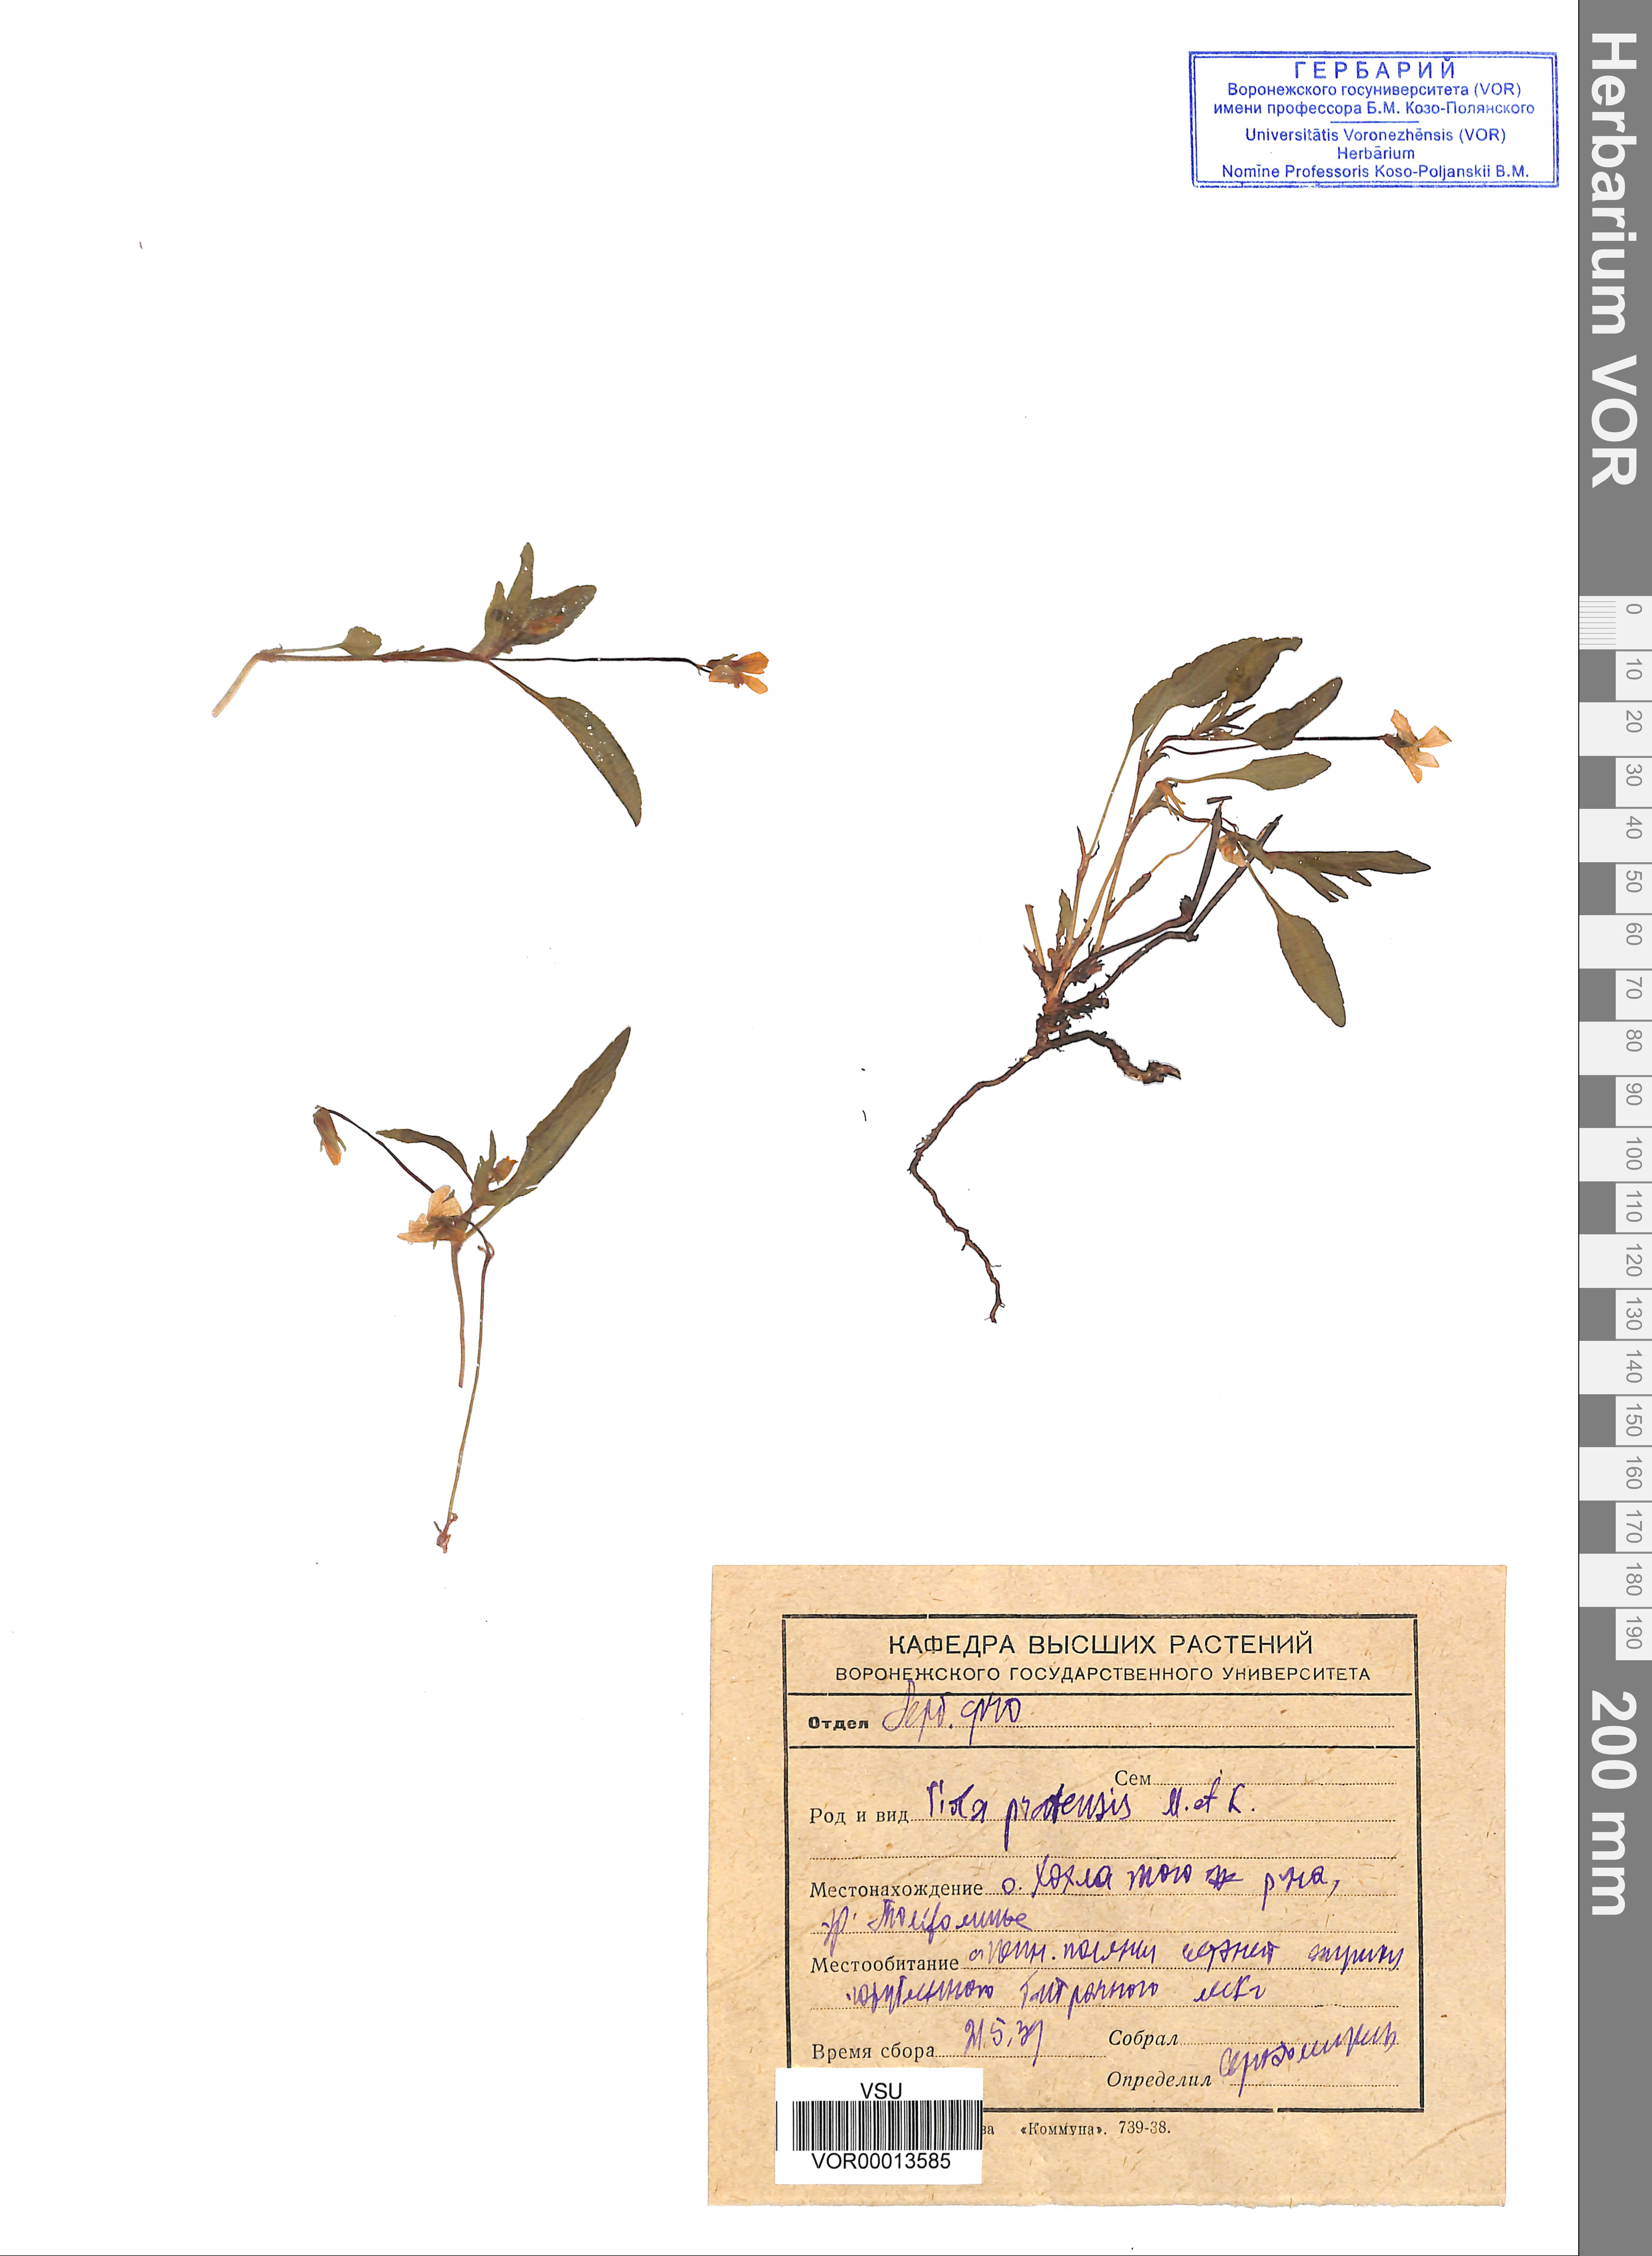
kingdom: Plantae
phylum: Tracheophyta
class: Magnoliopsida
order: Malpighiales
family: Violaceae
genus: Viola
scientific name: Viola pumila
